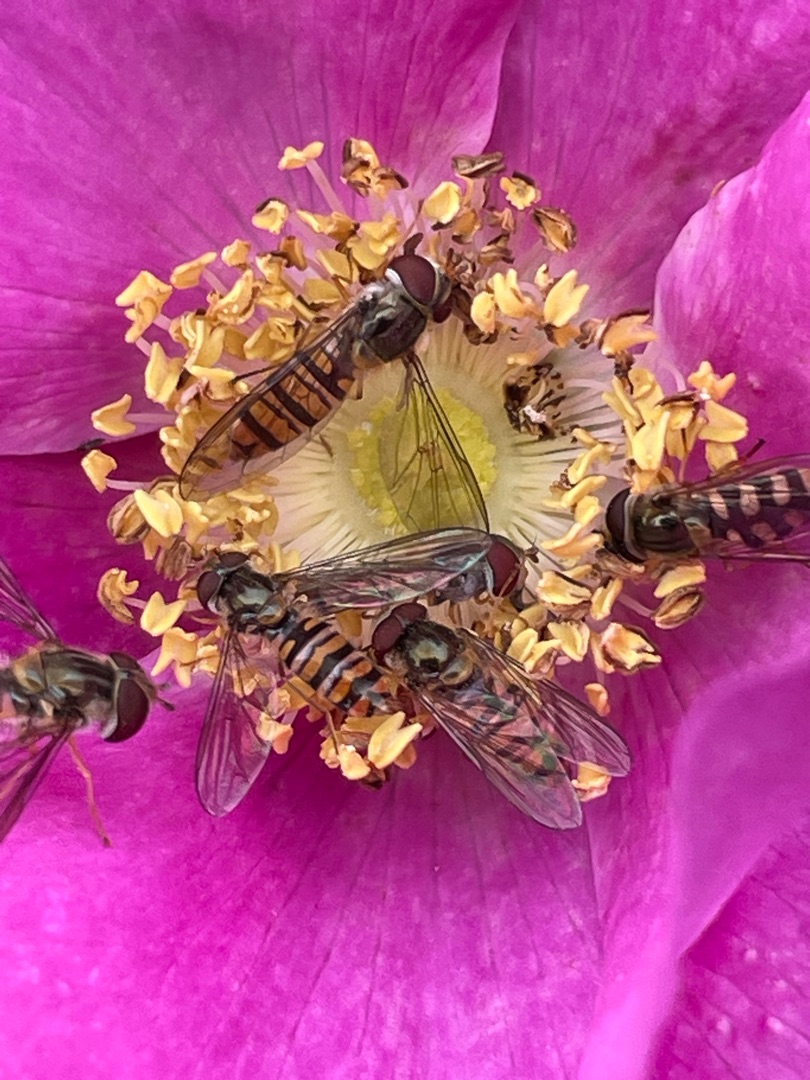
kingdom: Animalia
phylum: Arthropoda
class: Insecta
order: Diptera
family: Syrphidae
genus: Episyrphus
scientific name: Episyrphus balteatus
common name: Dobbeltbåndet svirreflue
